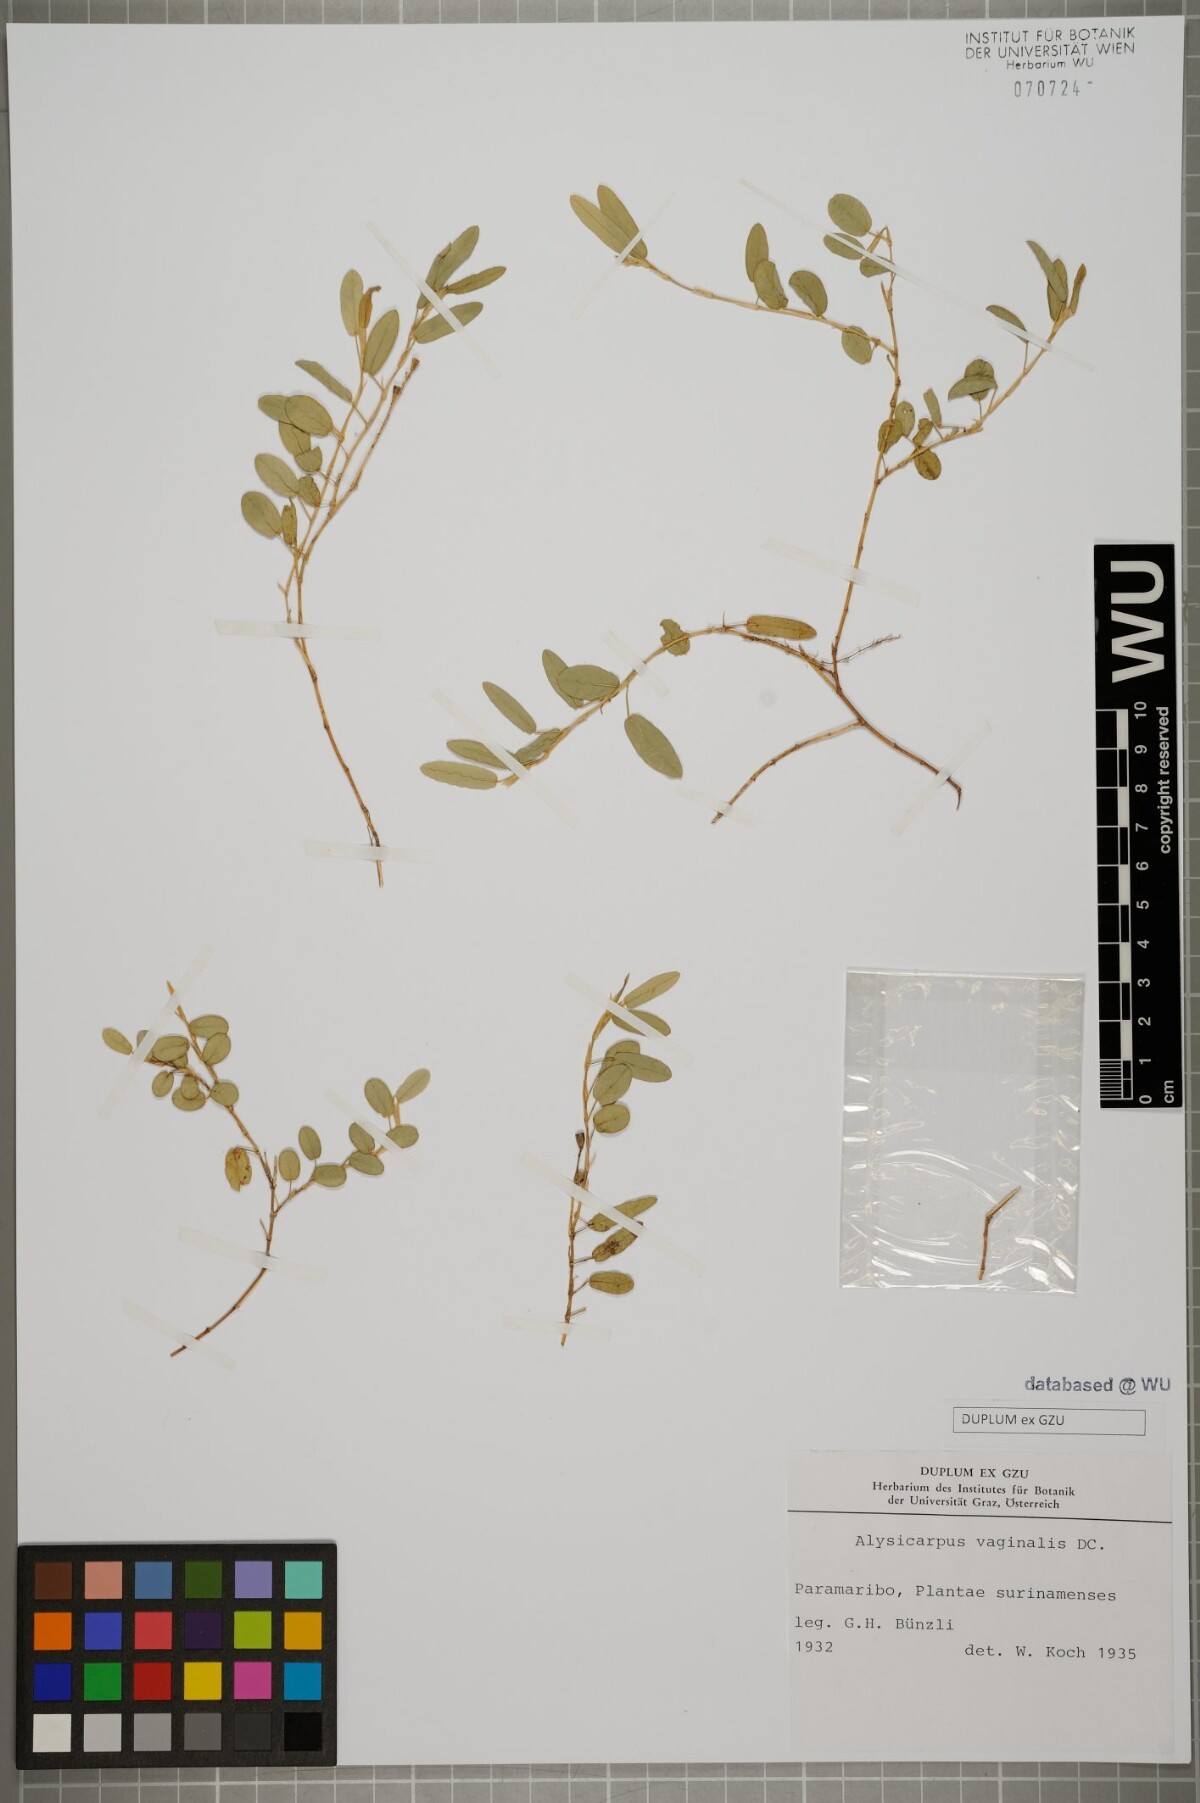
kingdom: Plantae
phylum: Tracheophyta
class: Magnoliopsida
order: Fabales
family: Fabaceae
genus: Alysicarpus
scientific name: Alysicarpus vaginalis
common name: White moneywort
